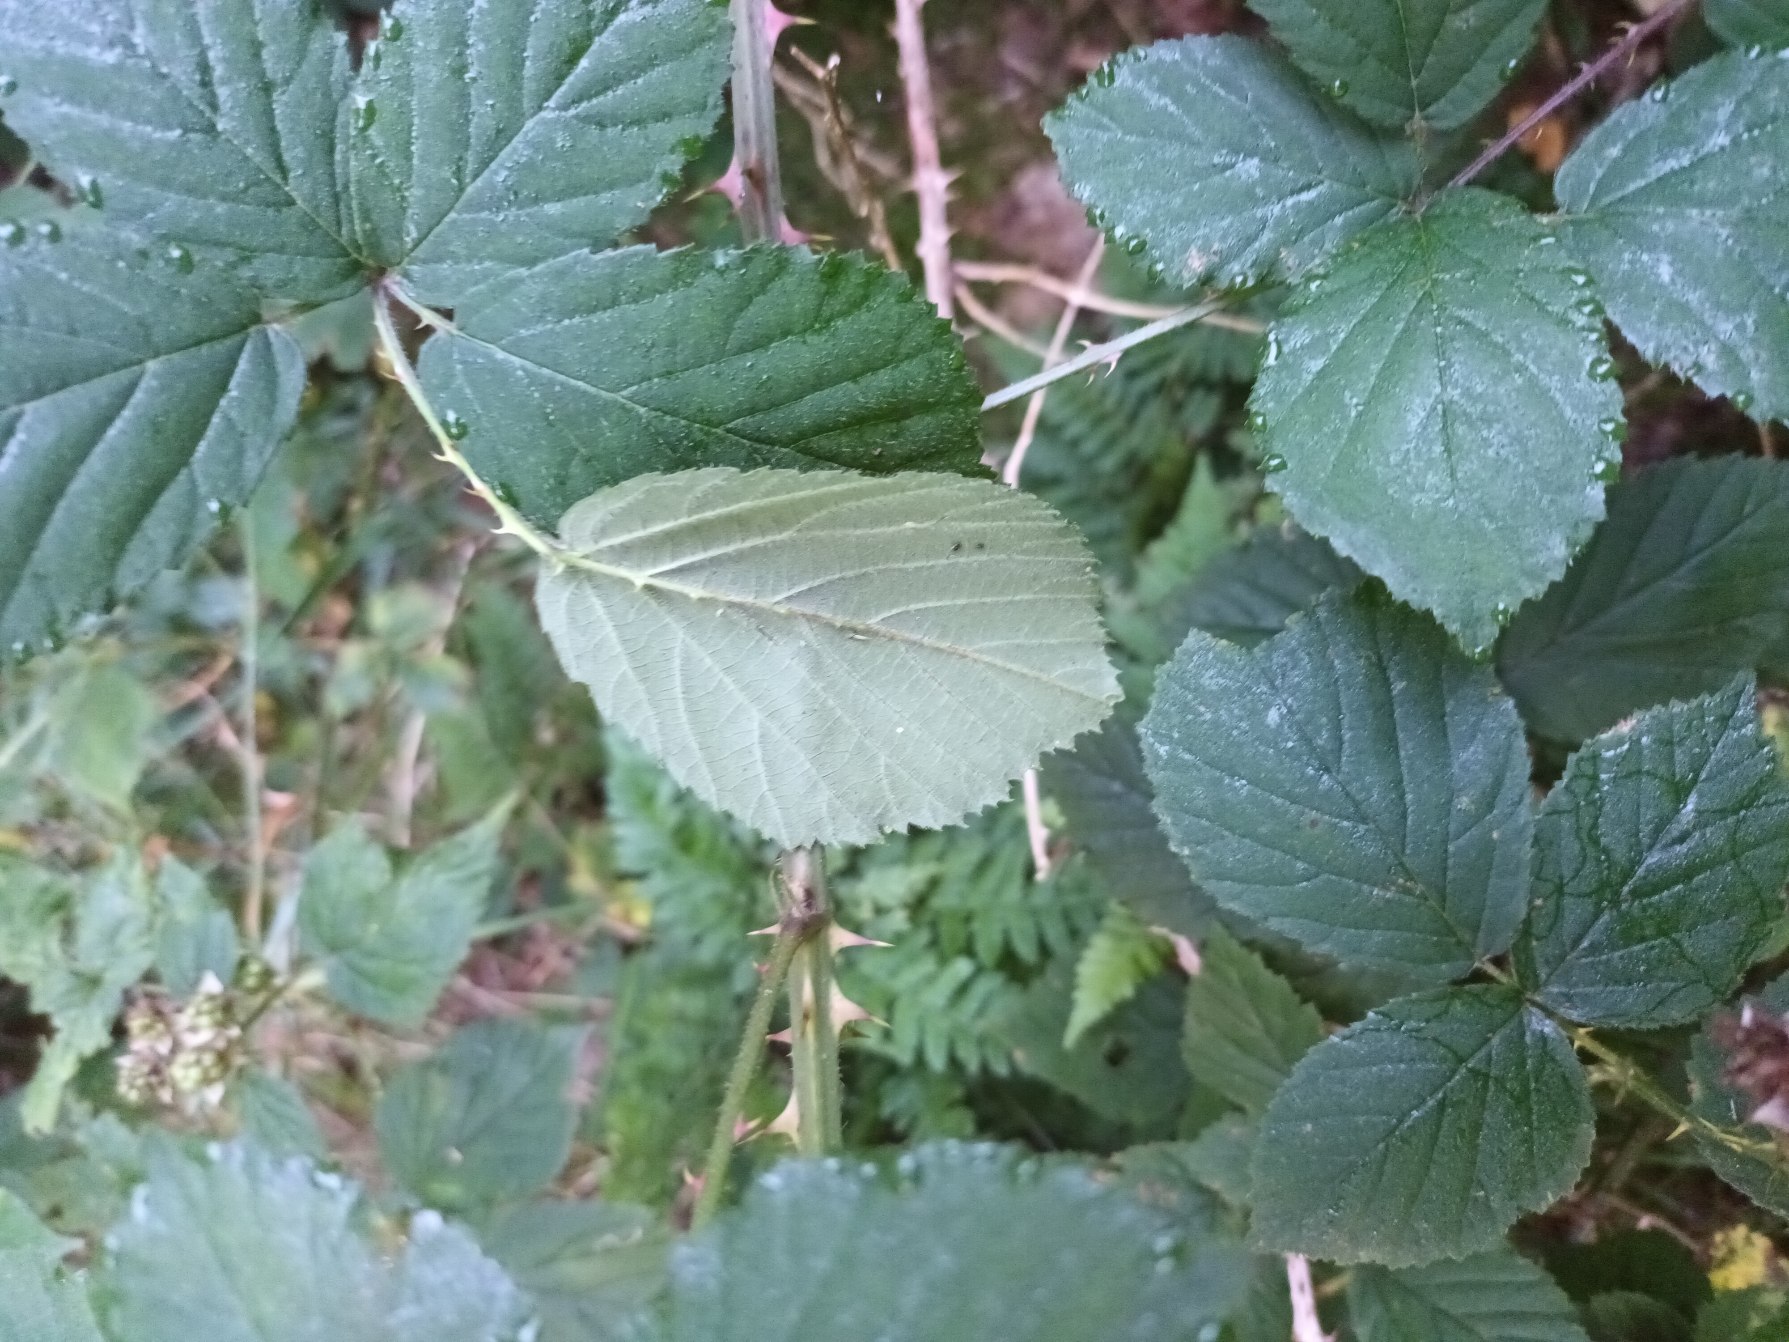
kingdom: Plantae
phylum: Tracheophyta
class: Magnoliopsida
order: Rosales
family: Rosaceae
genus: Rubus
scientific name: Rubus infestus
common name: Klotornet brombær
